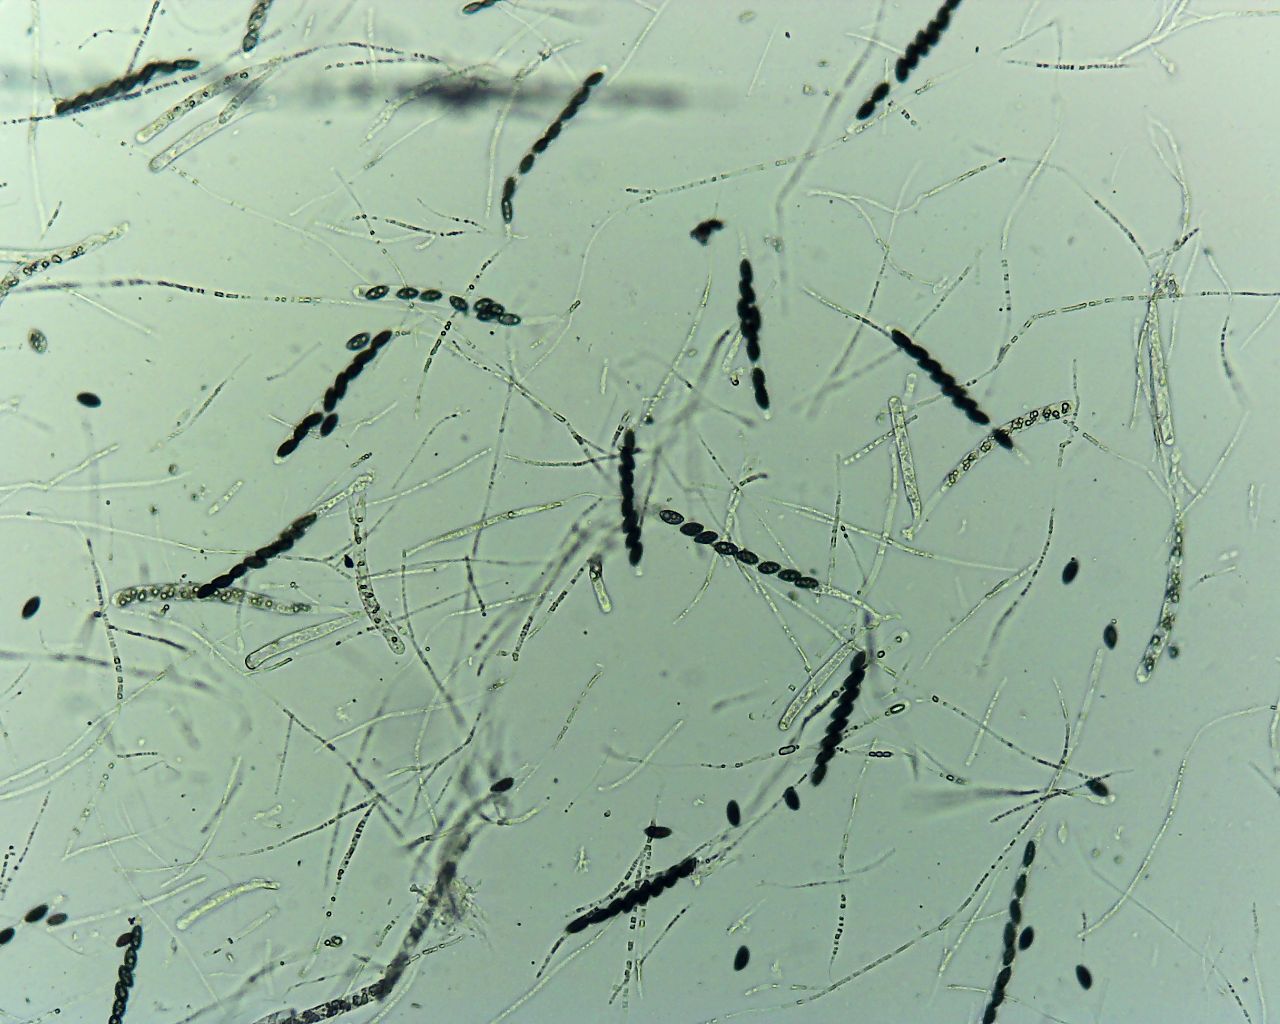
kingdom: Fungi
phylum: Ascomycota
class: Sordariomycetes
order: Xylariales
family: Xylariaceae
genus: Nemania
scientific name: Nemania confluens
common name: indsænket kuldyne
